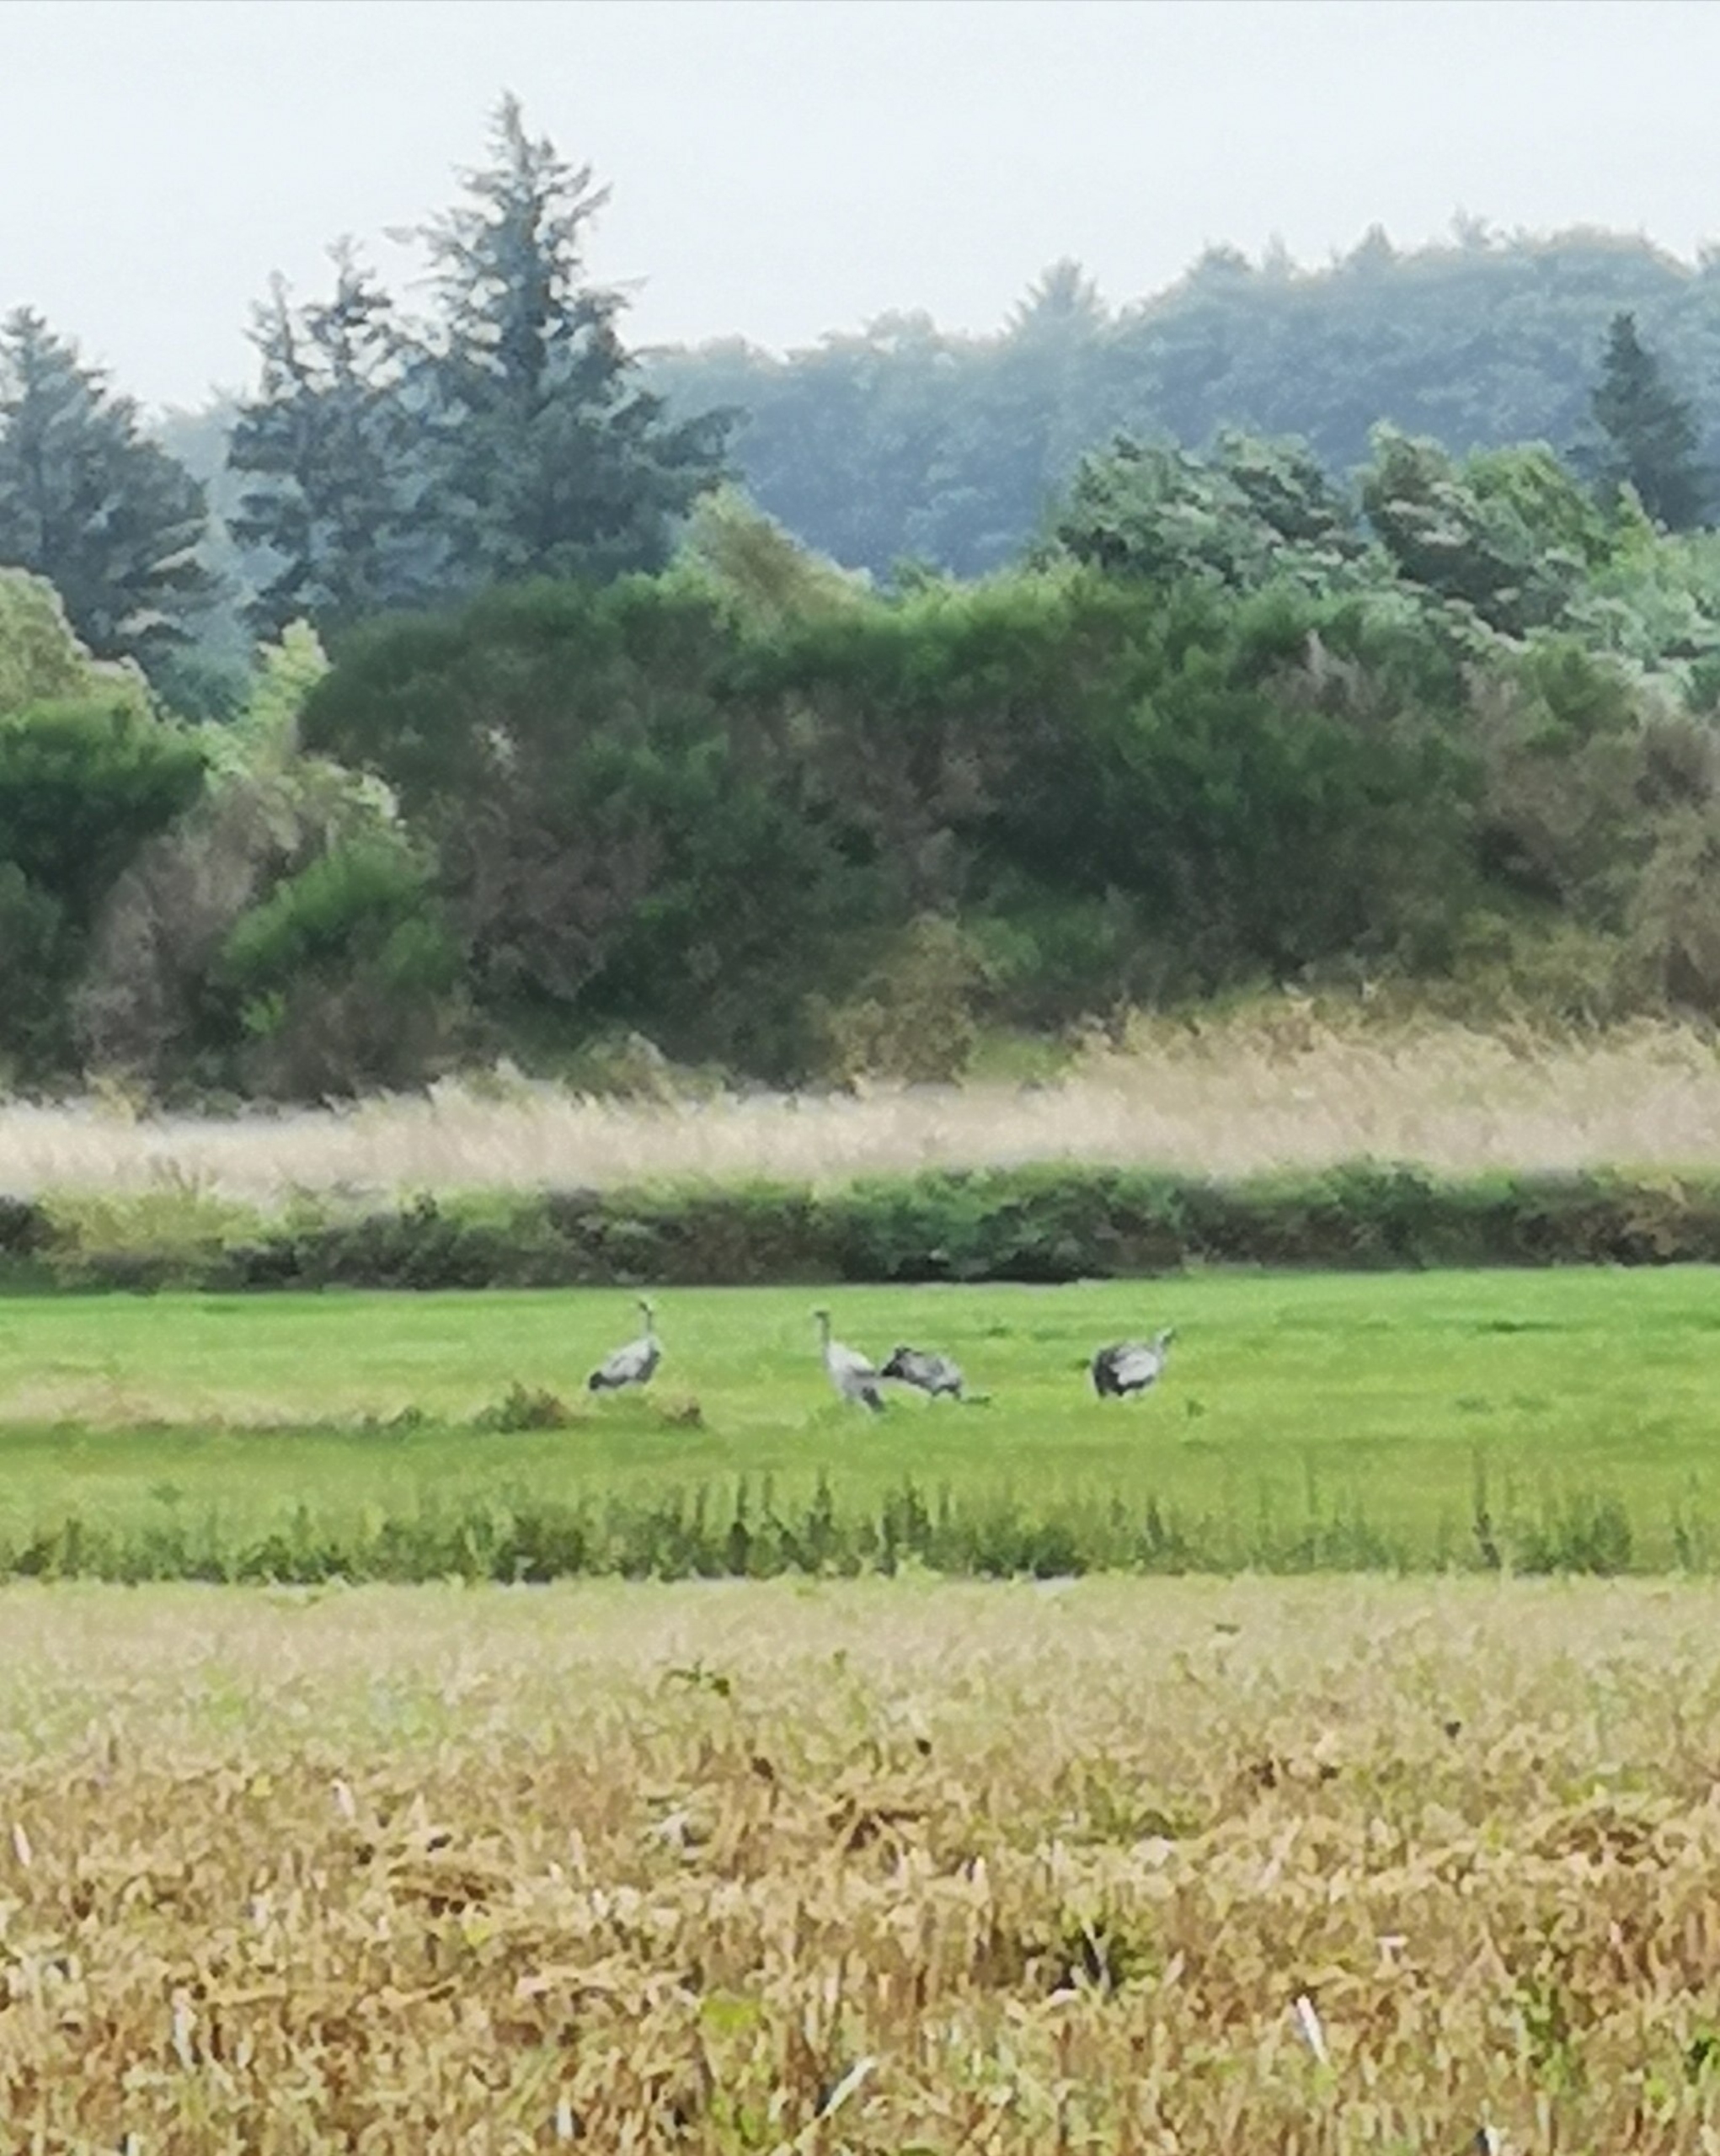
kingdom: Animalia
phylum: Chordata
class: Aves
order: Gruiformes
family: Gruidae
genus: Grus
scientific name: Grus grus
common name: Trane
